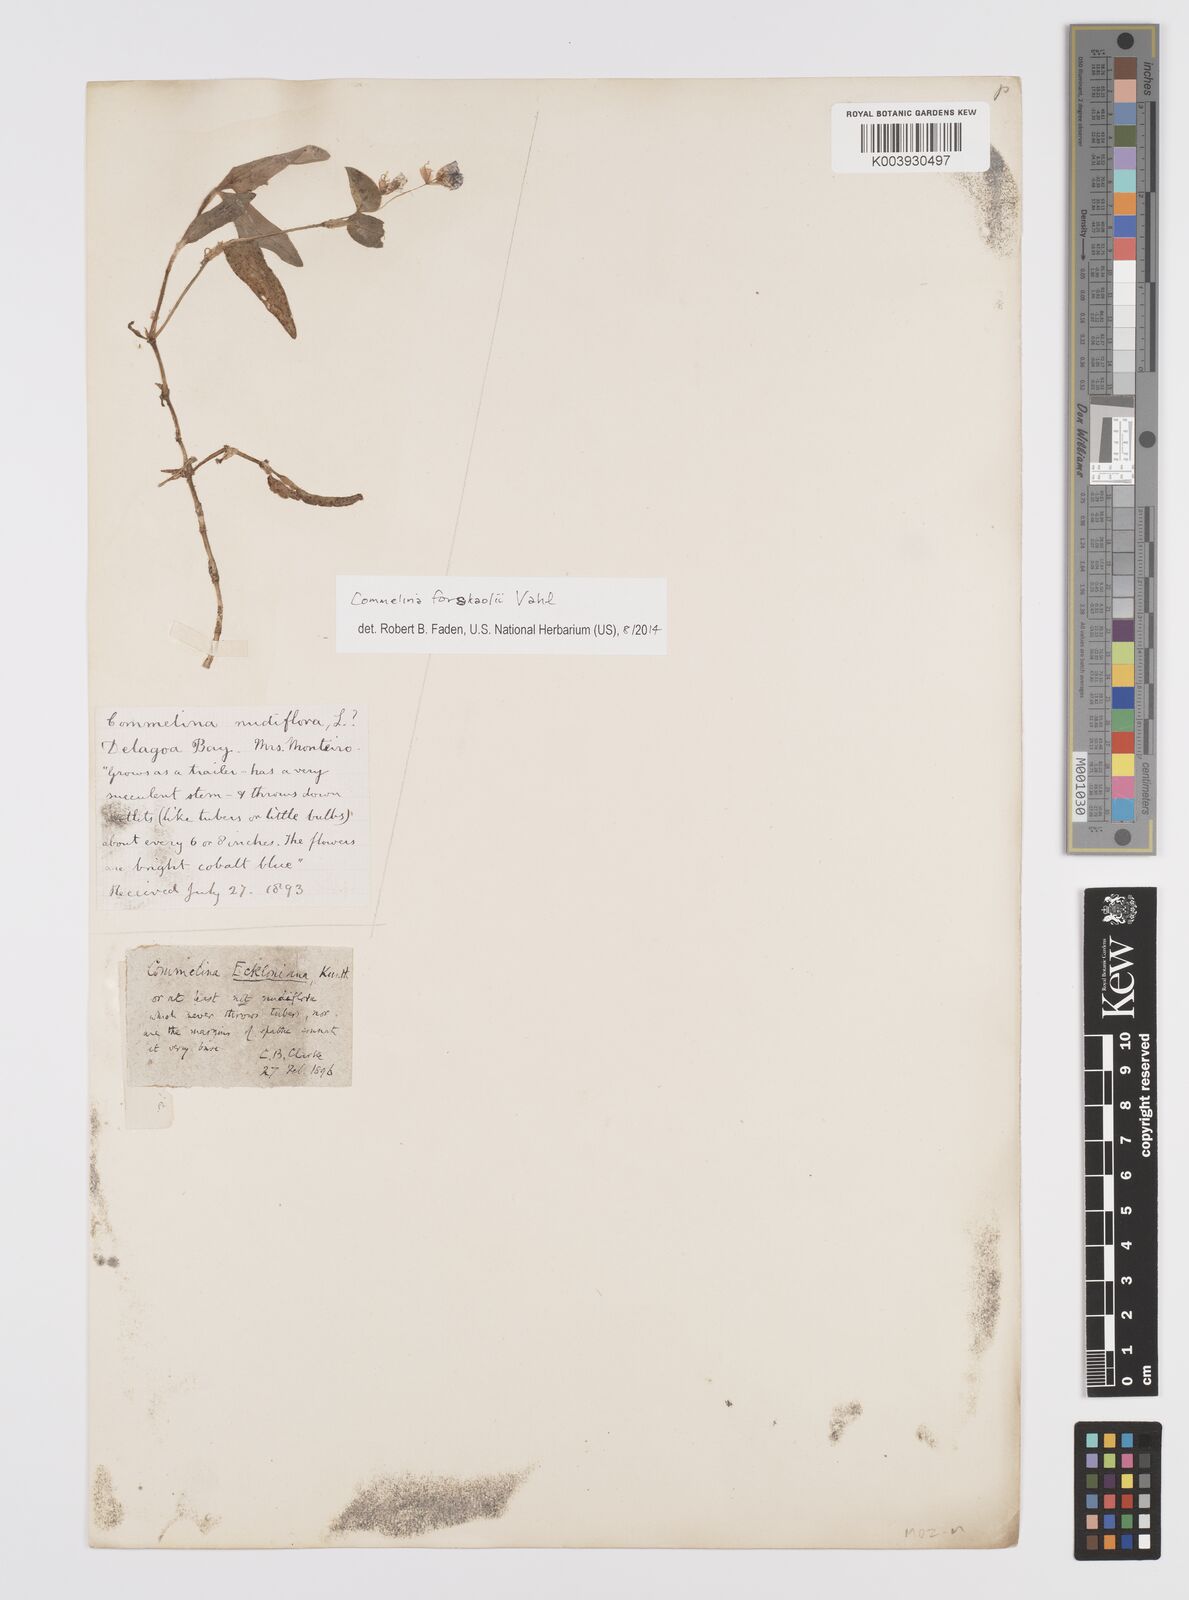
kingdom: Plantae
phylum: Tracheophyta
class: Liliopsida
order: Commelinales
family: Commelinaceae
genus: Commelina
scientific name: Commelina forskaolii
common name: Rat's ear
